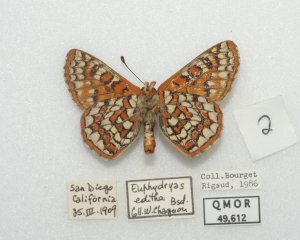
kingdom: Animalia
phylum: Arthropoda
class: Insecta
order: Lepidoptera
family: Nymphalidae
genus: Occidryas
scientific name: Occidryas editha
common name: Edith's Checkerspot
